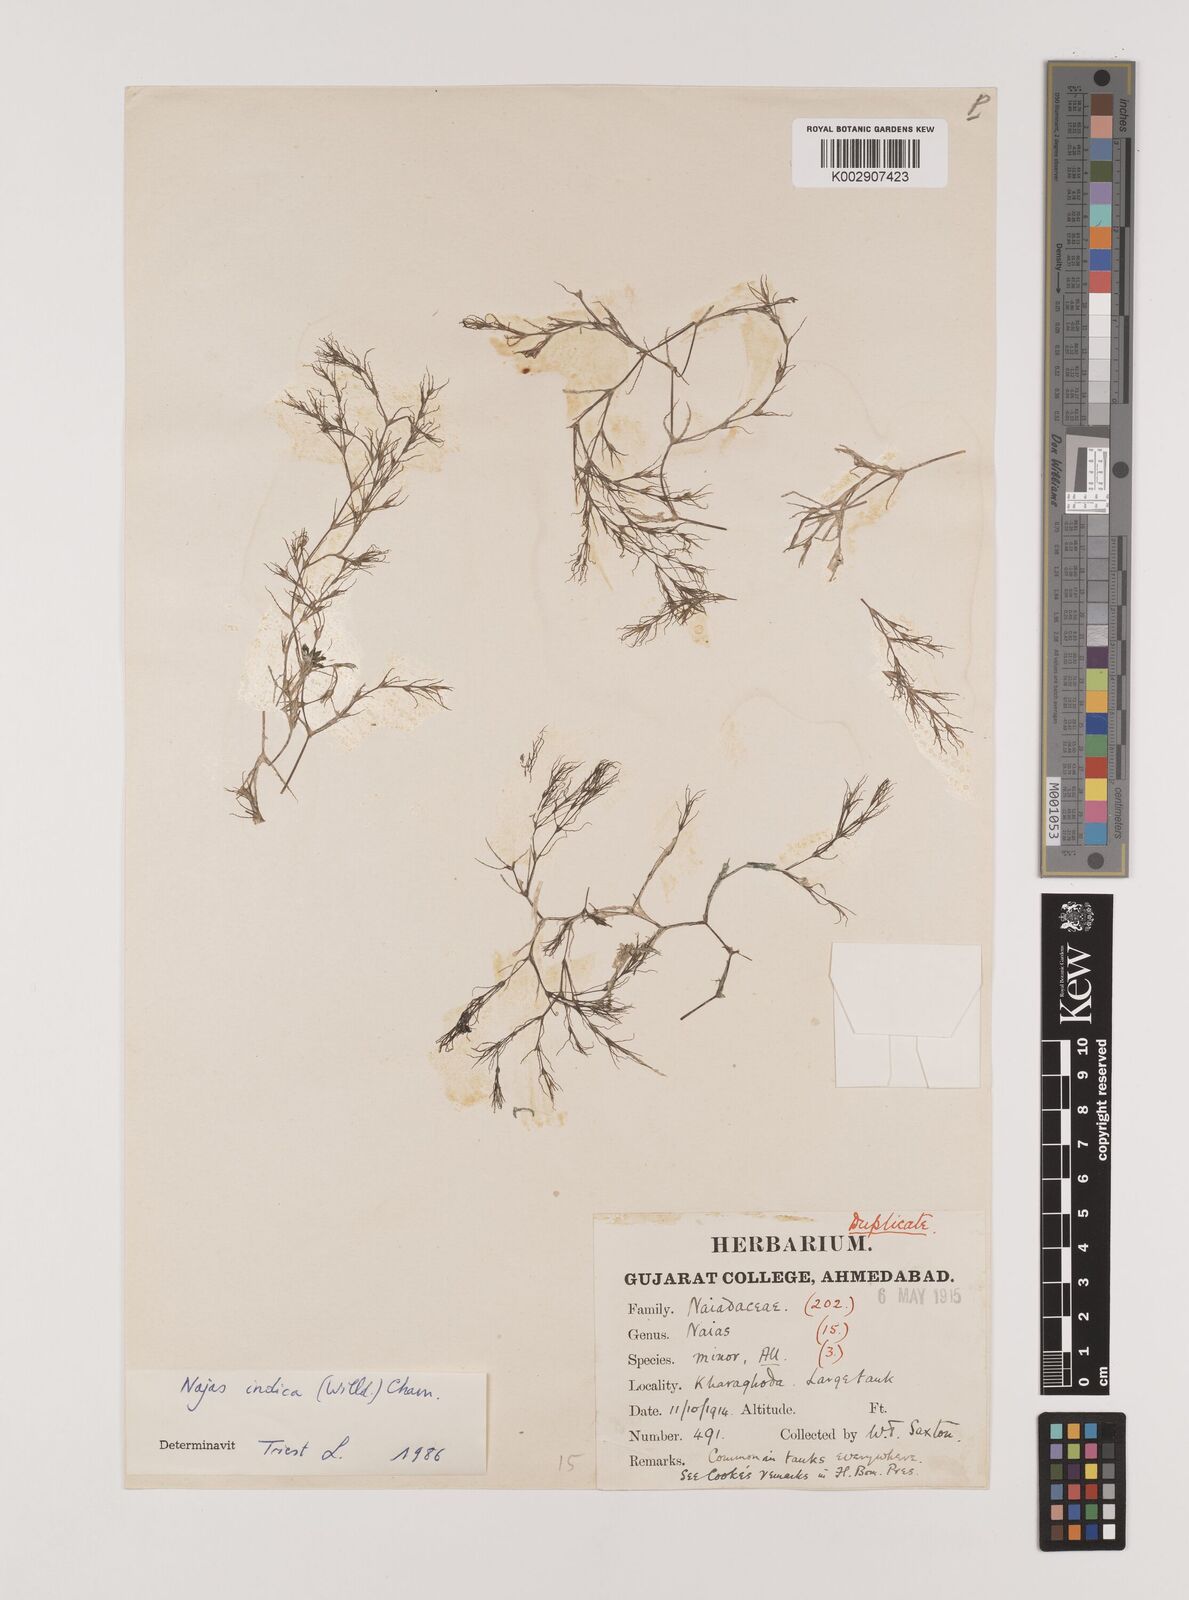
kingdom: Plantae
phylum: Tracheophyta
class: Liliopsida
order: Alismatales
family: Hydrocharitaceae
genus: Najas
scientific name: Najas indica
